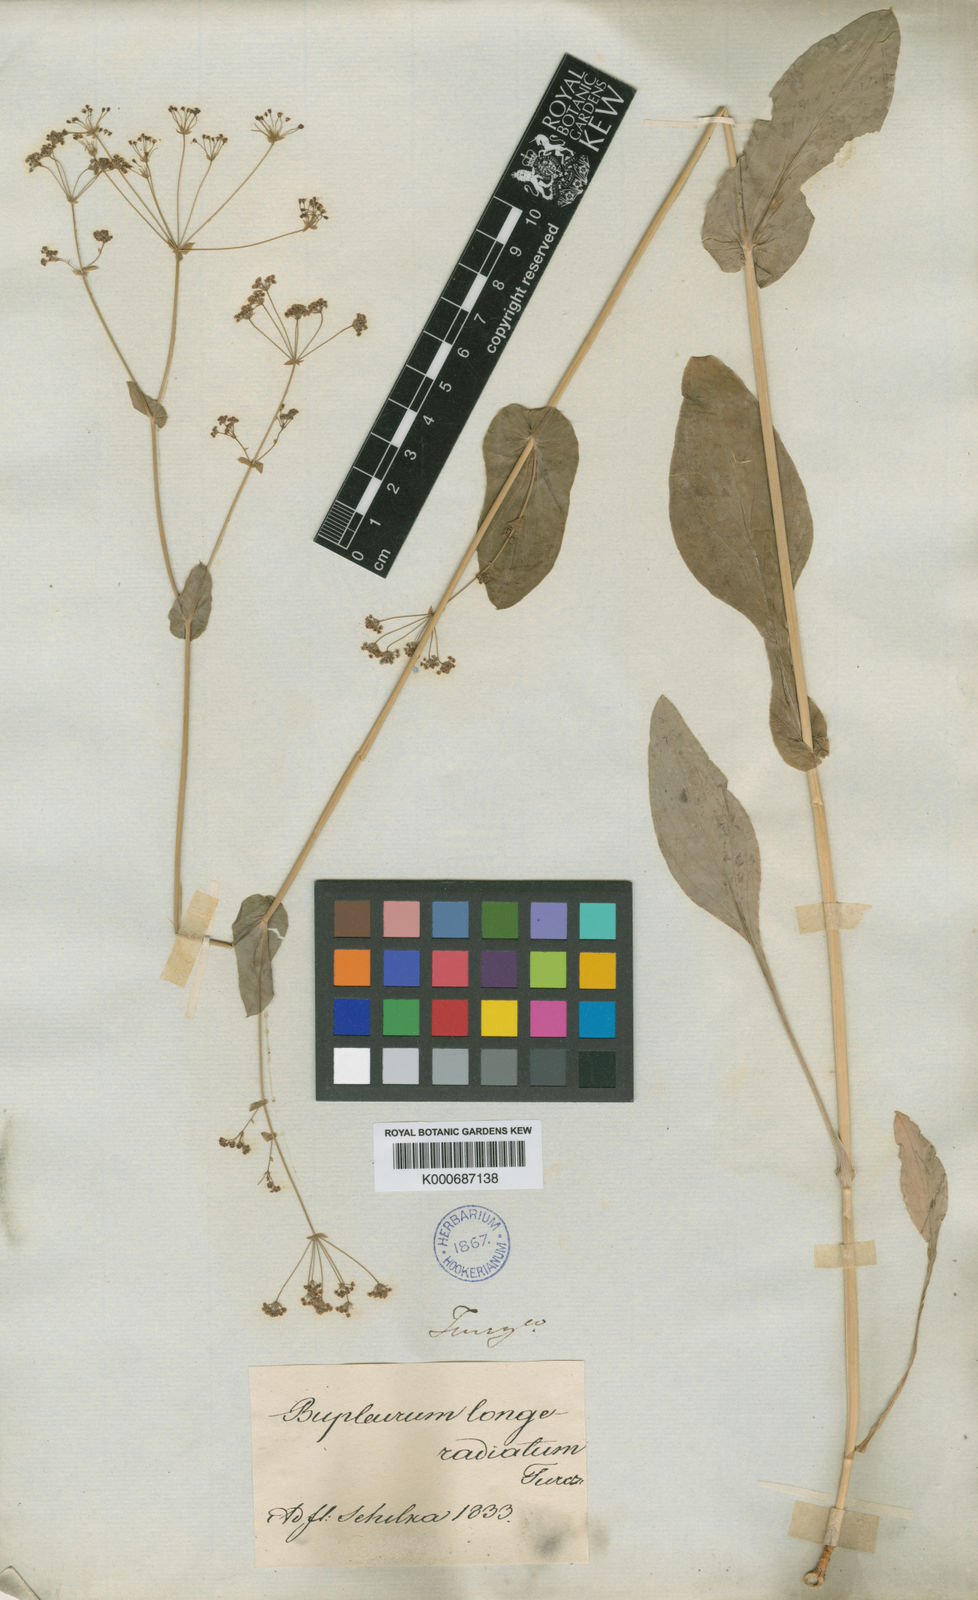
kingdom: Plantae
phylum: Tracheophyta
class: Magnoliopsida
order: Apiales
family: Apiaceae
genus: Bupleurum
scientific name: Bupleurum dalhousieanum
